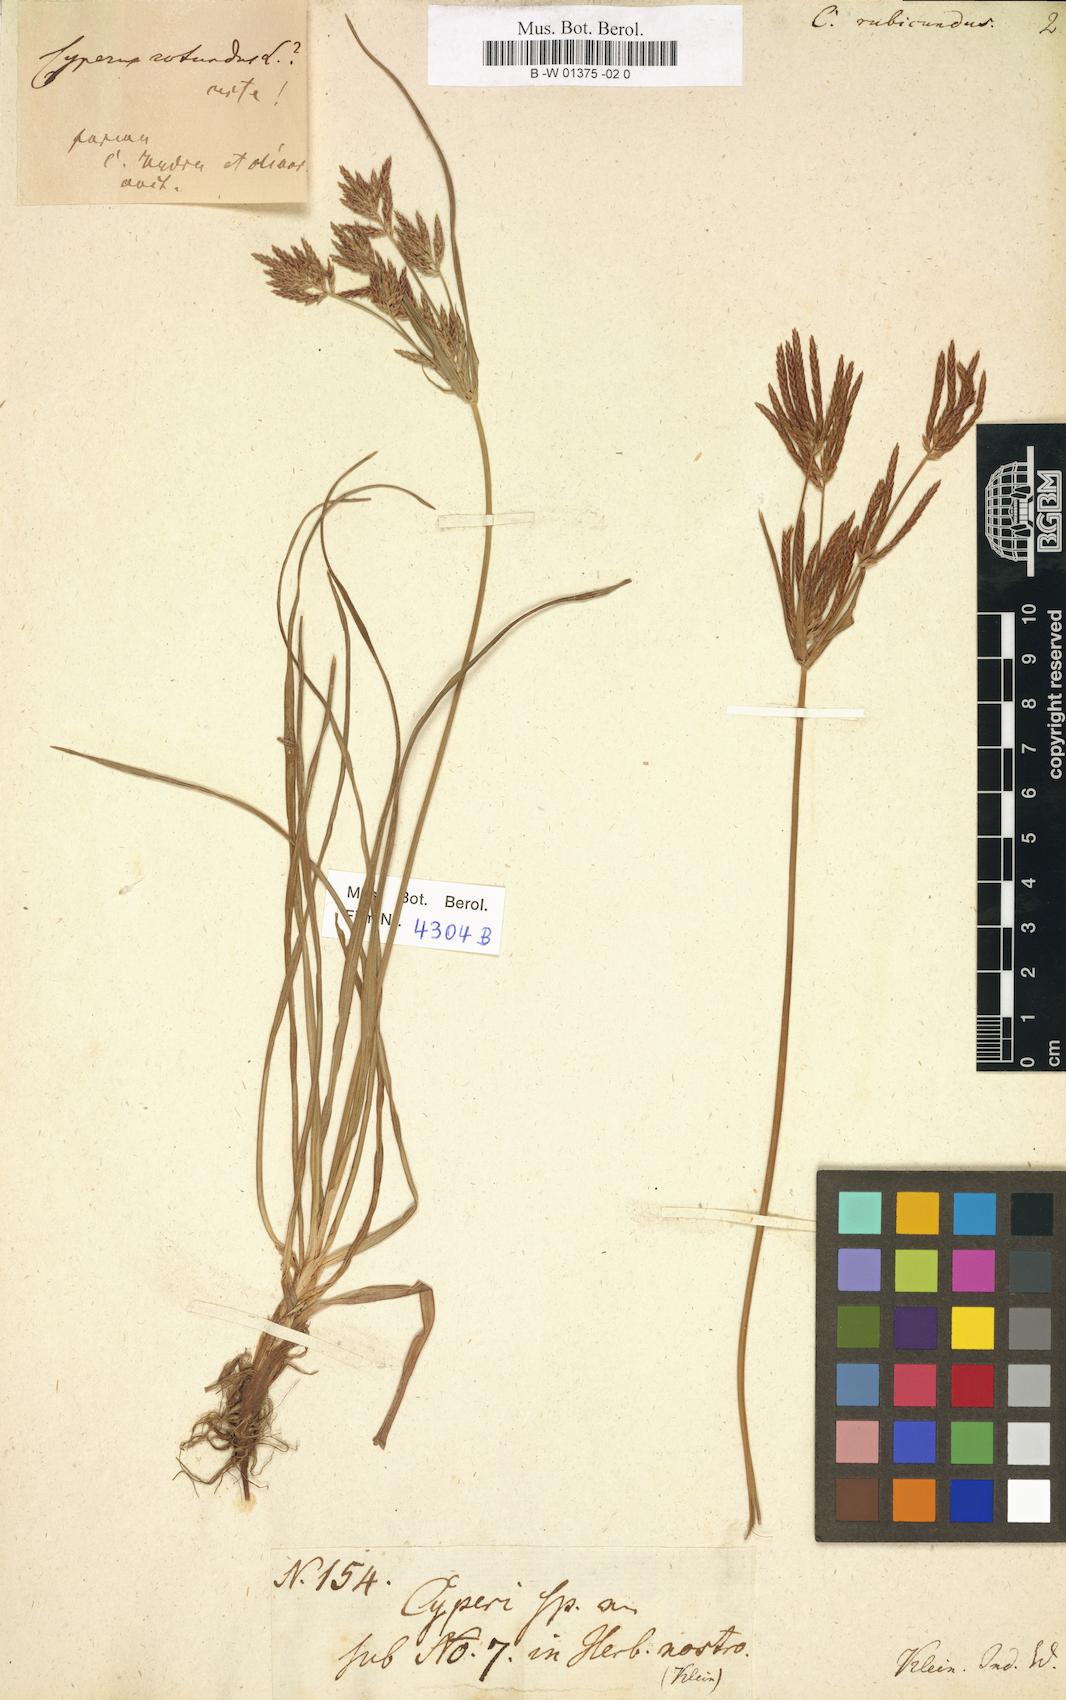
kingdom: Plantae
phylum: Tracheophyta
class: Liliopsida
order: Poales
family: Cyperaceae
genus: Cyperus
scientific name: Cyperus rubicundus
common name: Coco-grass
